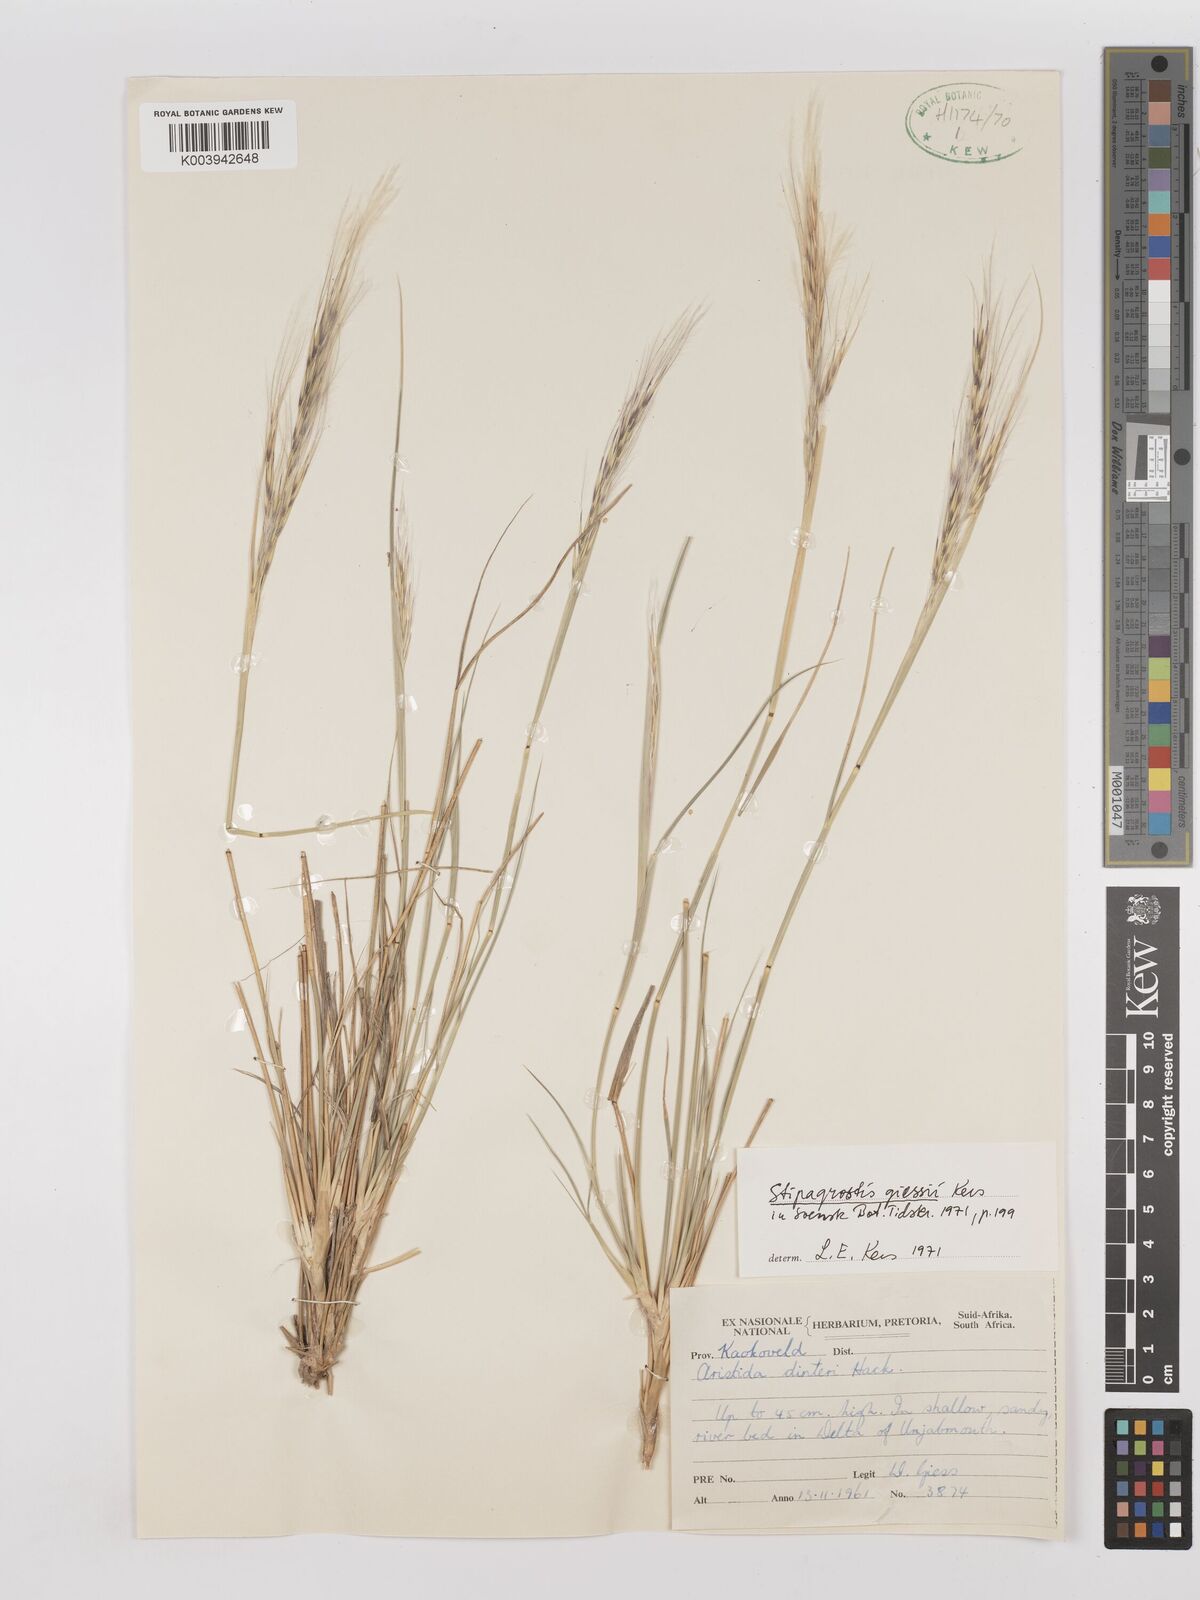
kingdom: Plantae
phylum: Tracheophyta
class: Liliopsida
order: Poales
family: Poaceae
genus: Stipagrostis
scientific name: Stipagrostis giessii
